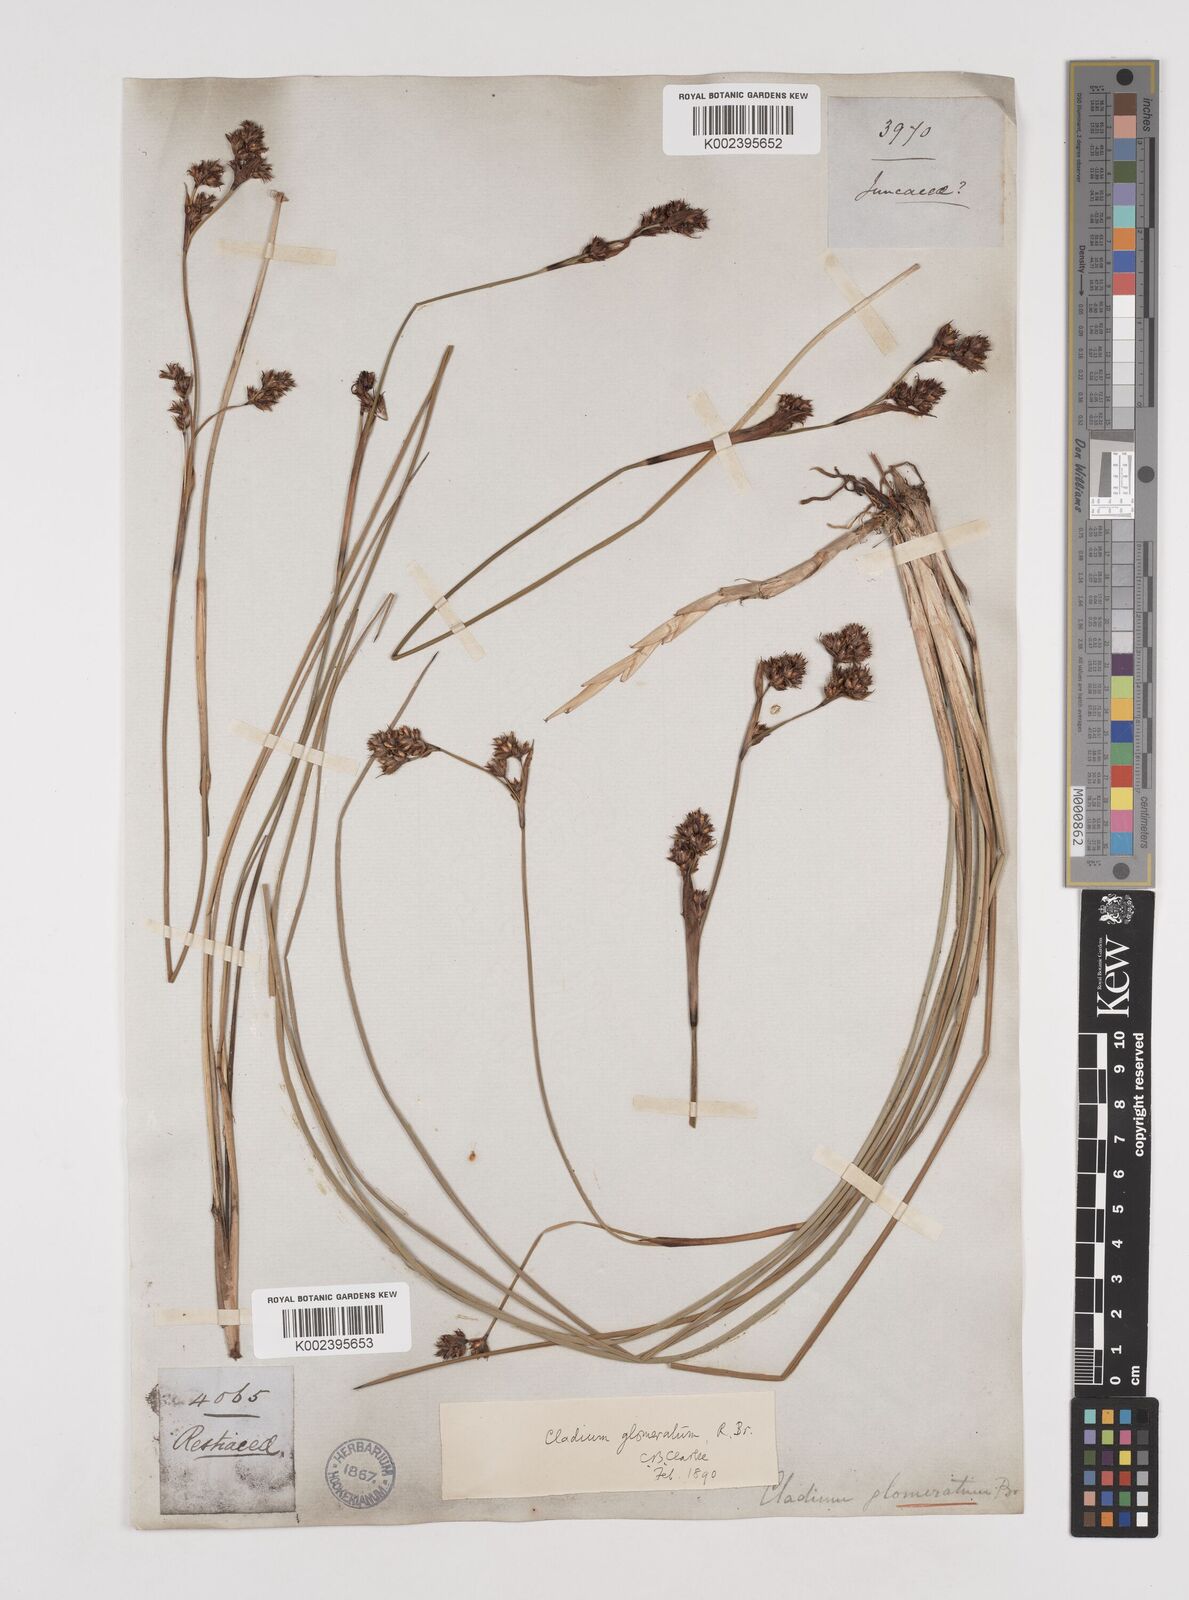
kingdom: Plantae
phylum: Tracheophyta
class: Liliopsida
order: Poales
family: Cyperaceae
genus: Machaerina
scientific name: Machaerina rubiginosa
